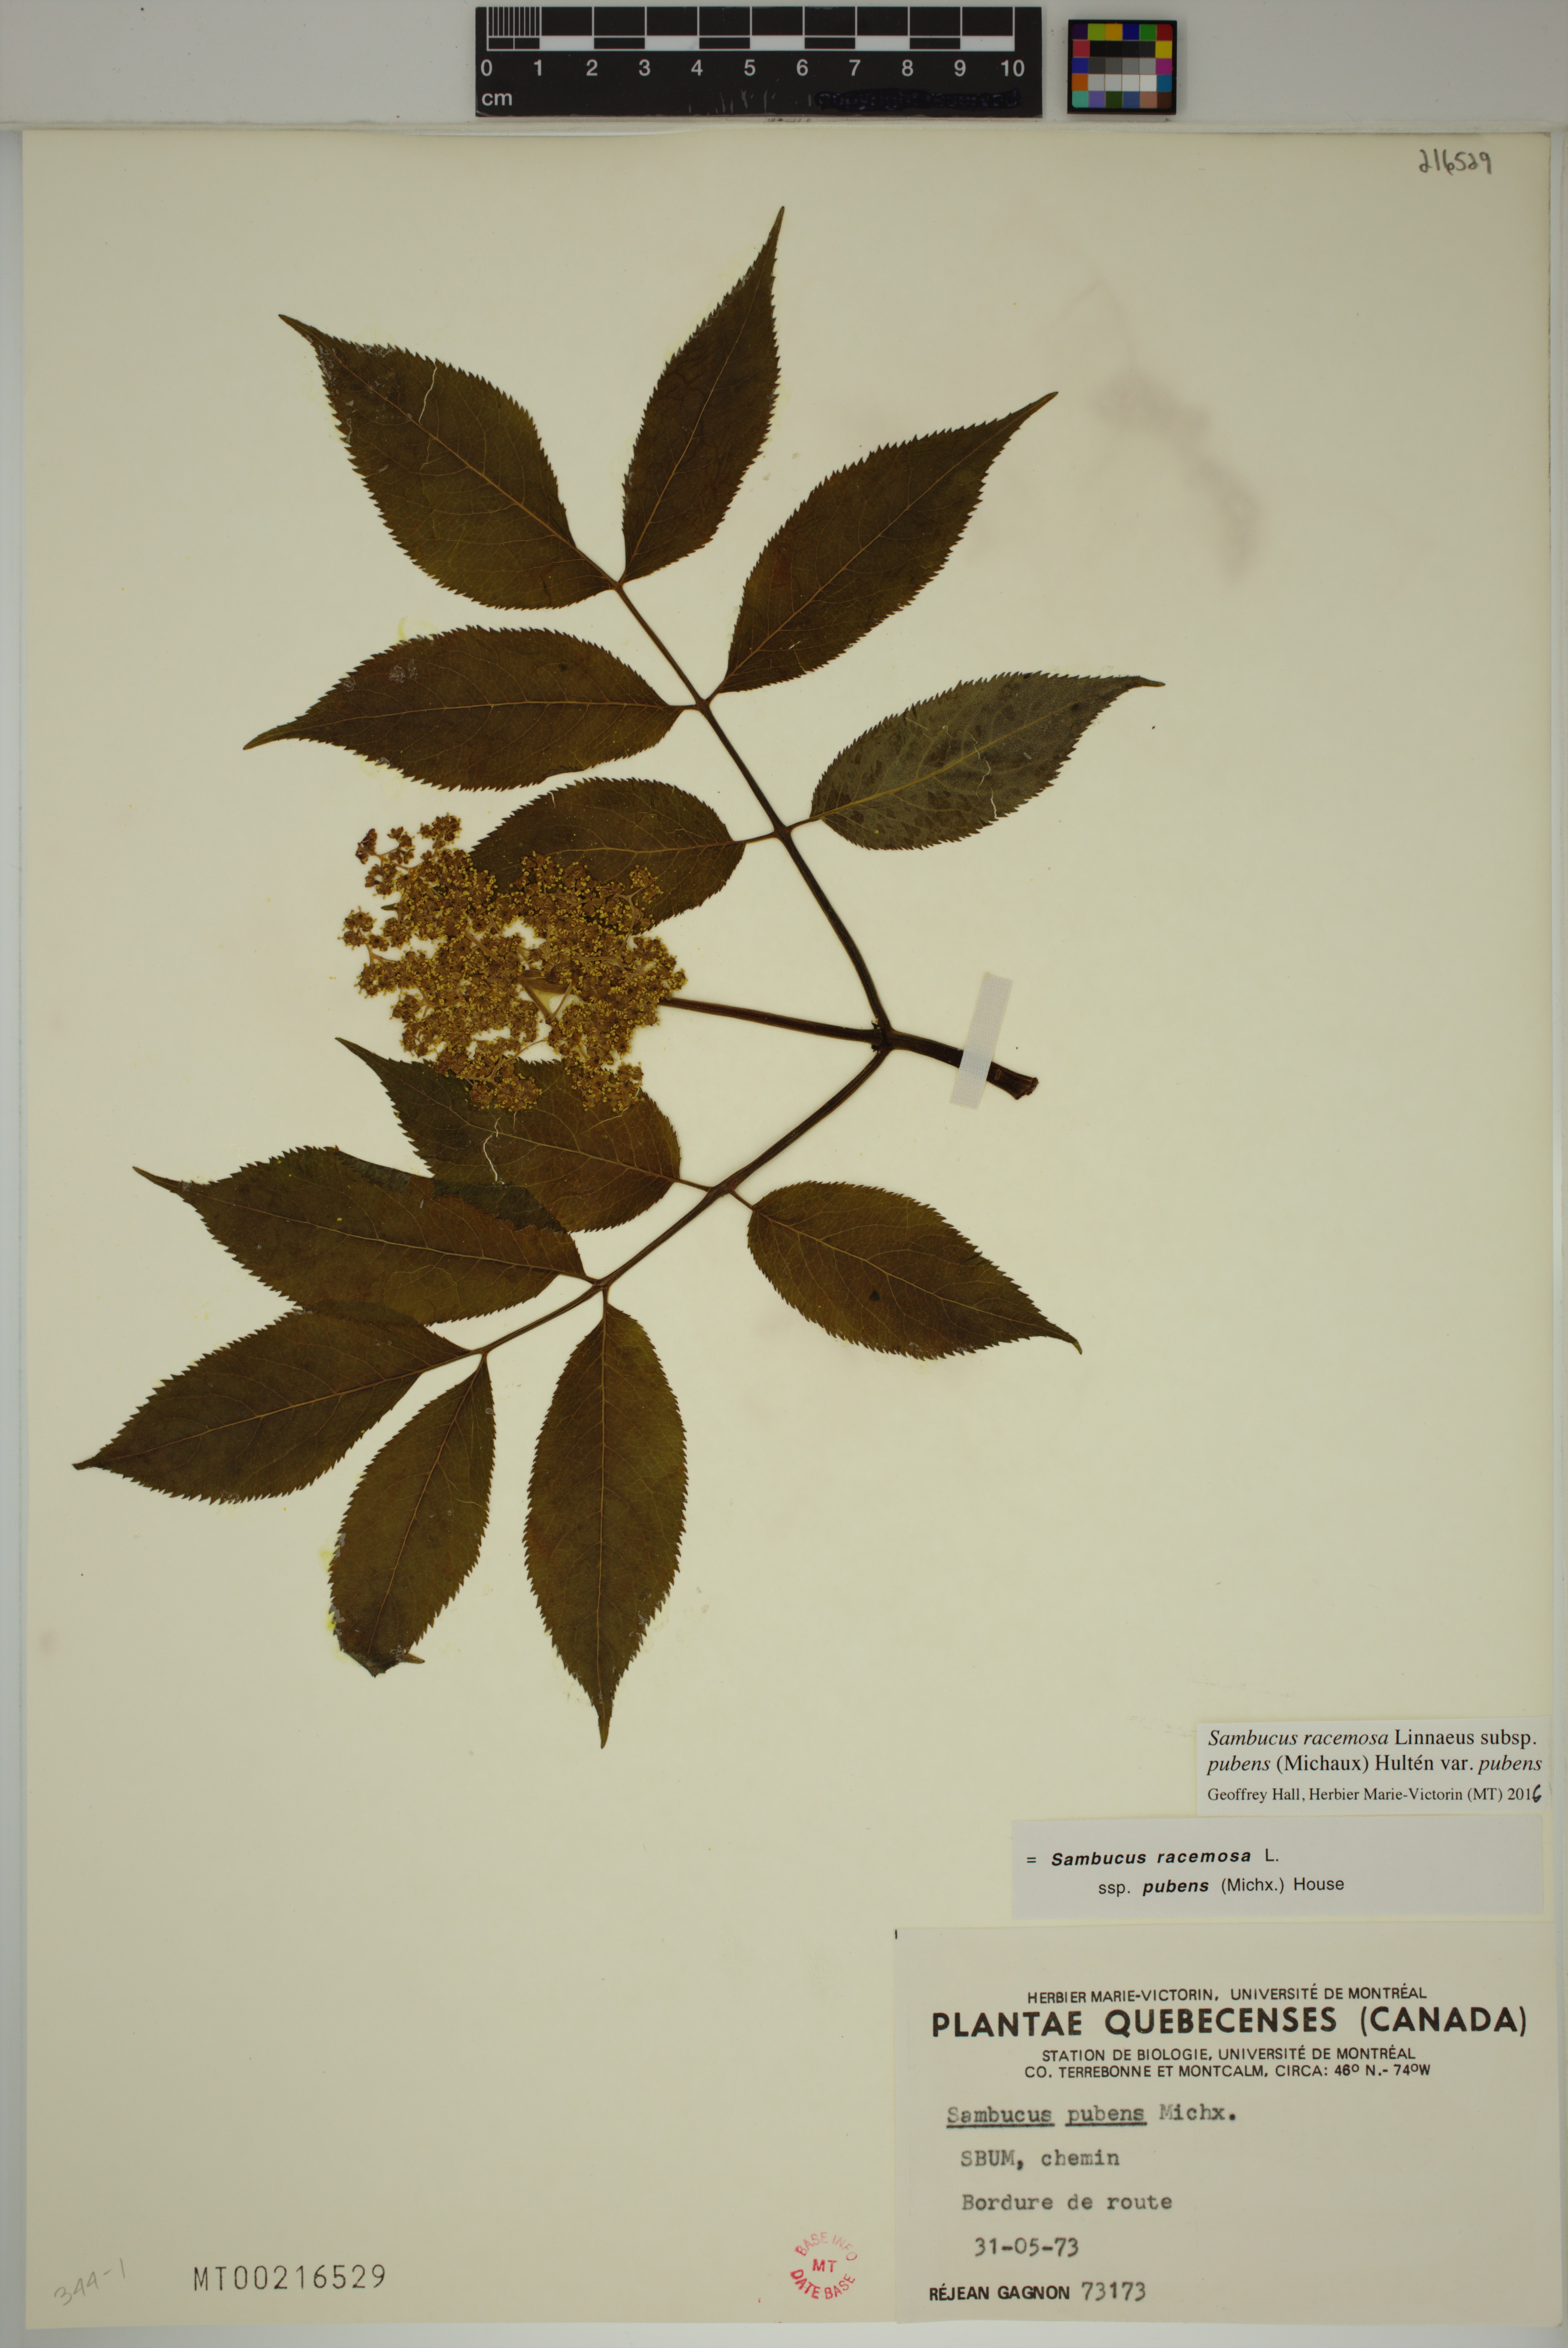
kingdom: Plantae
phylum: Tracheophyta
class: Magnoliopsida
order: Dipsacales
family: Viburnaceae
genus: Sambucus
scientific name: Sambucus racemosa
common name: Red-berried elder
